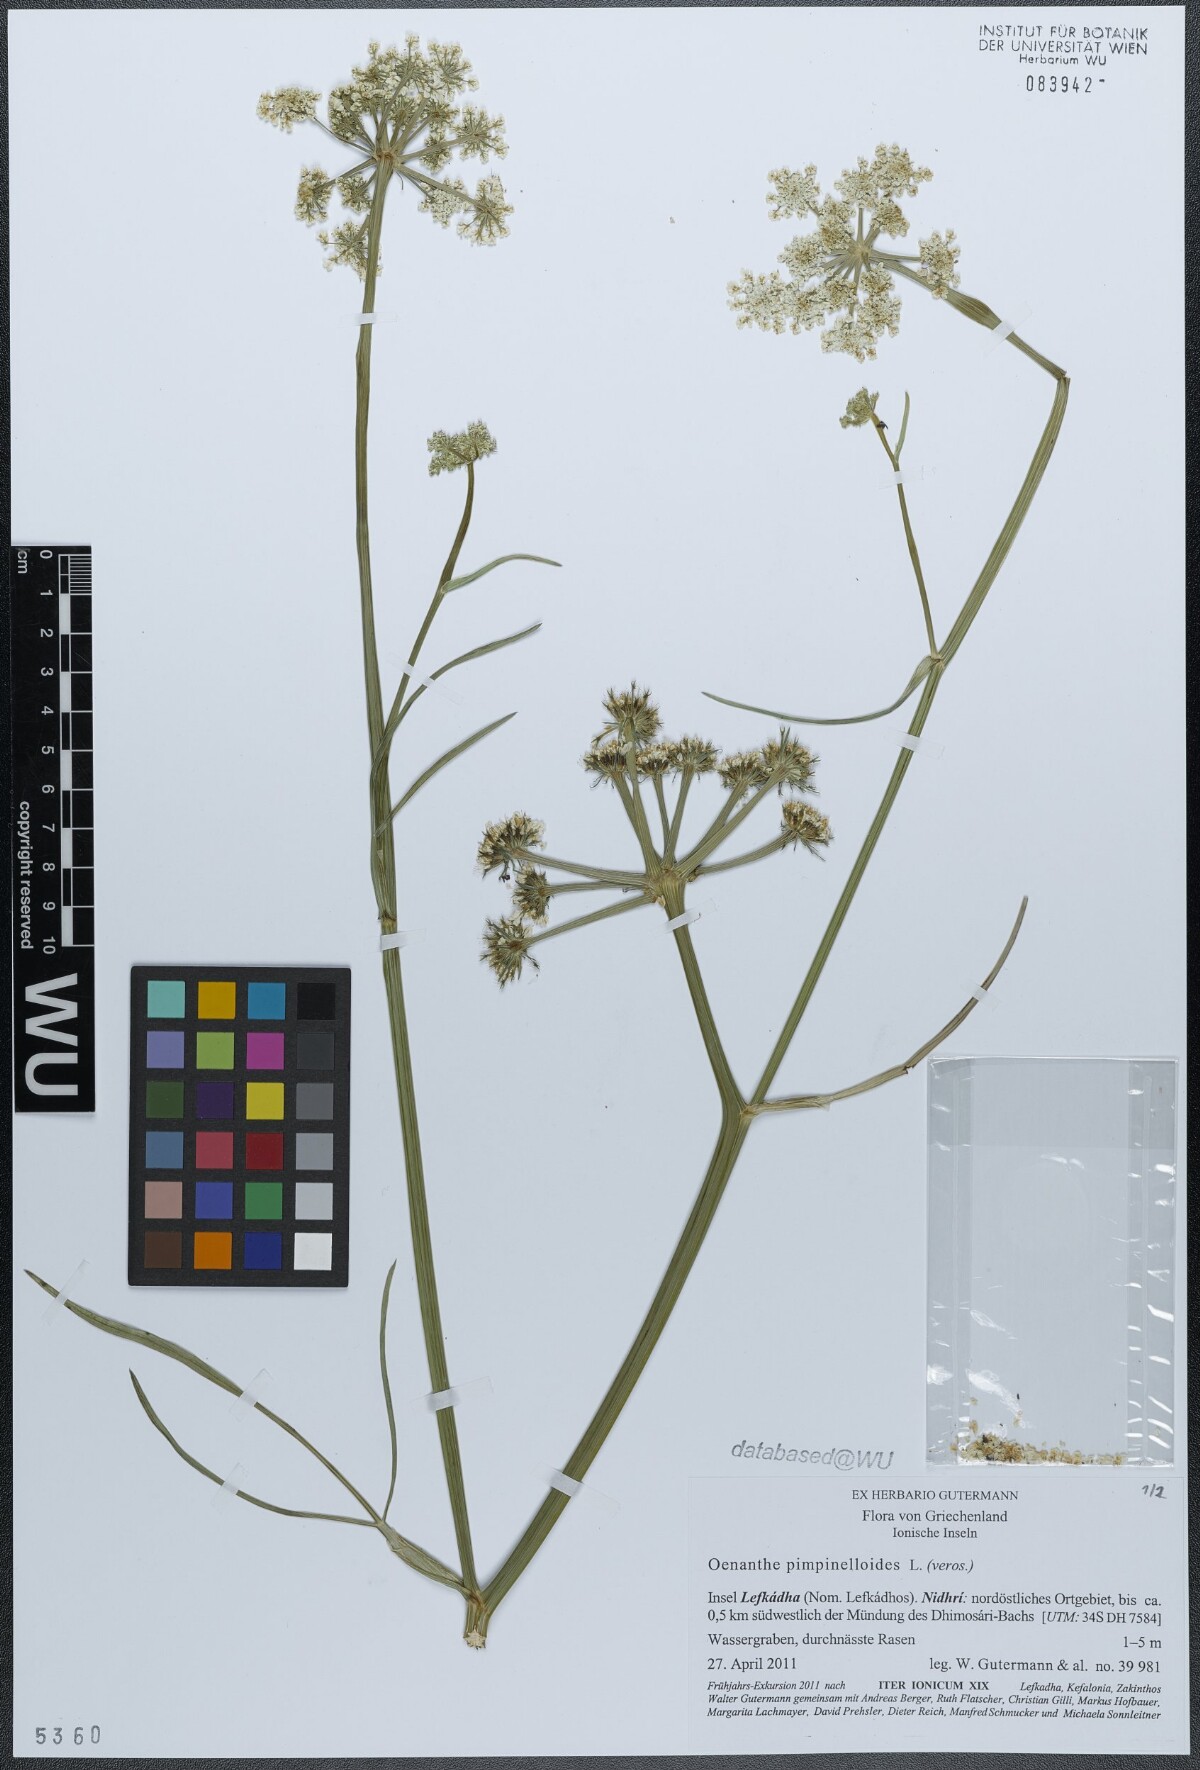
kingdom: Plantae
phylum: Tracheophyta
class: Magnoliopsida
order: Apiales
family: Apiaceae
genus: Oenanthe
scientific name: Oenanthe pimpinelloides
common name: Corky-fruited water-dropwort
